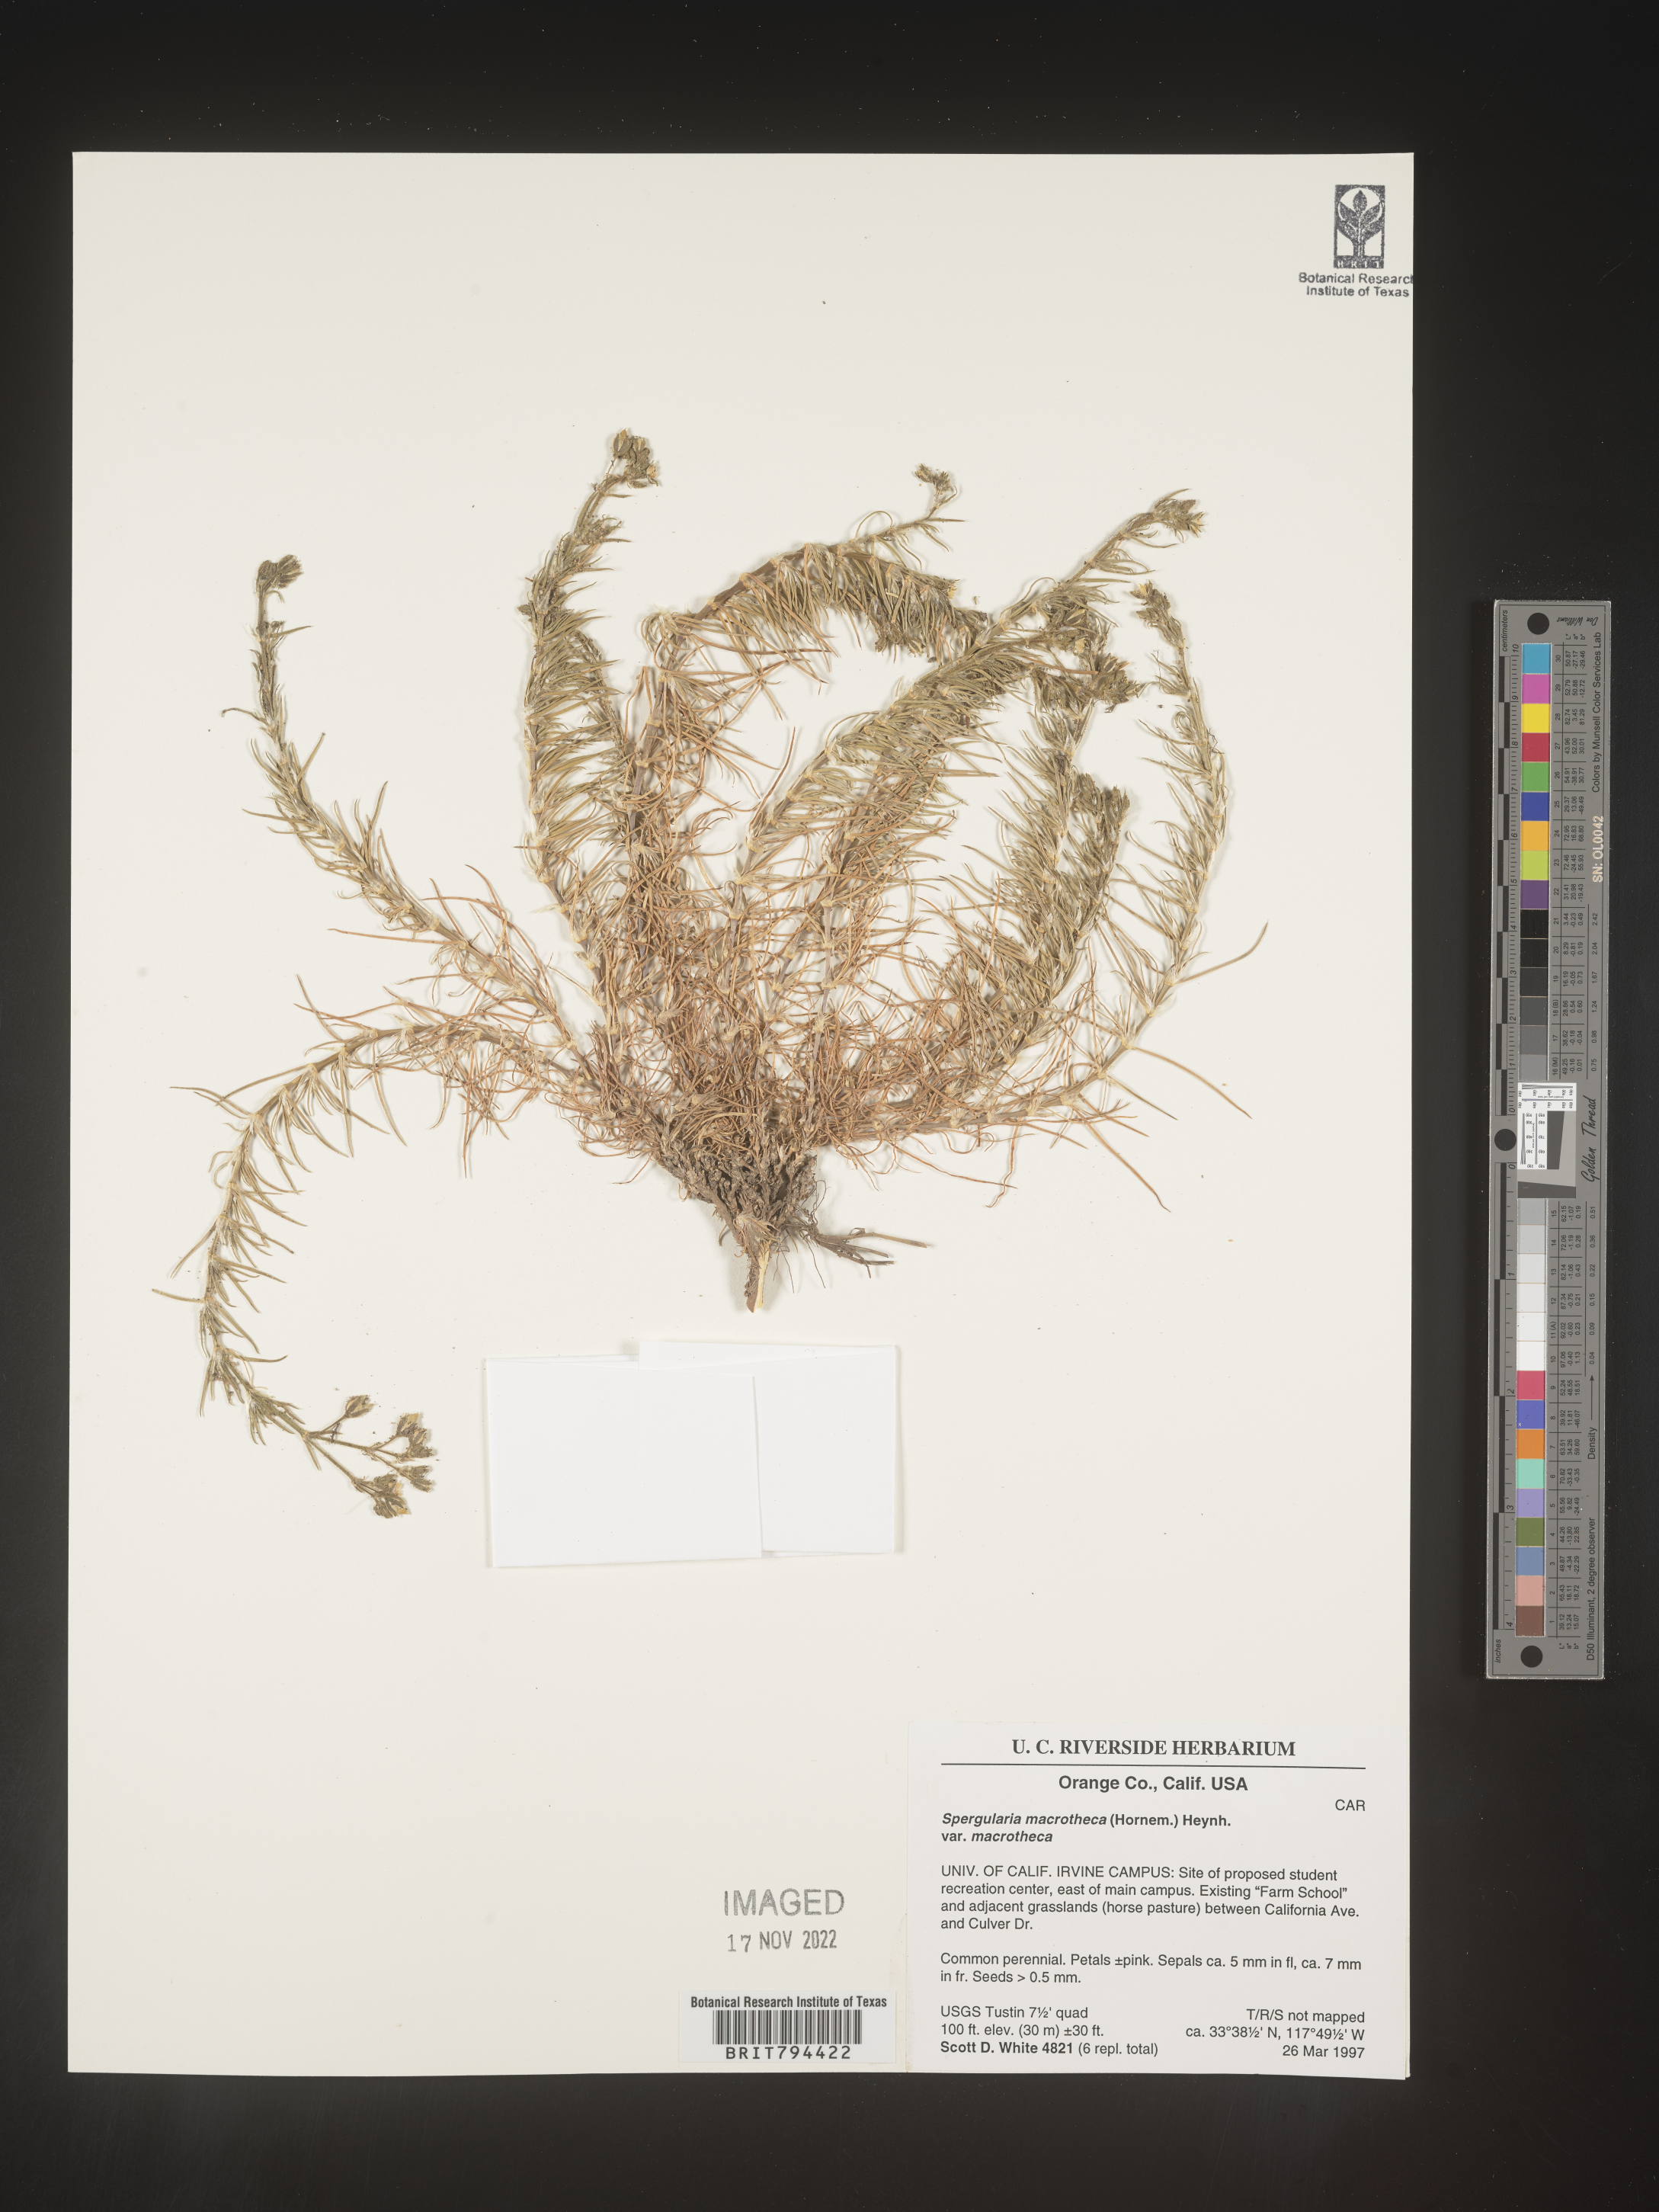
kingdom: Plantae
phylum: Tracheophyta
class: Magnoliopsida
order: Caryophyllales
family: Caryophyllaceae
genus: Spergularia
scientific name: Spergularia macrotheca
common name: Beach sand-spurrey
